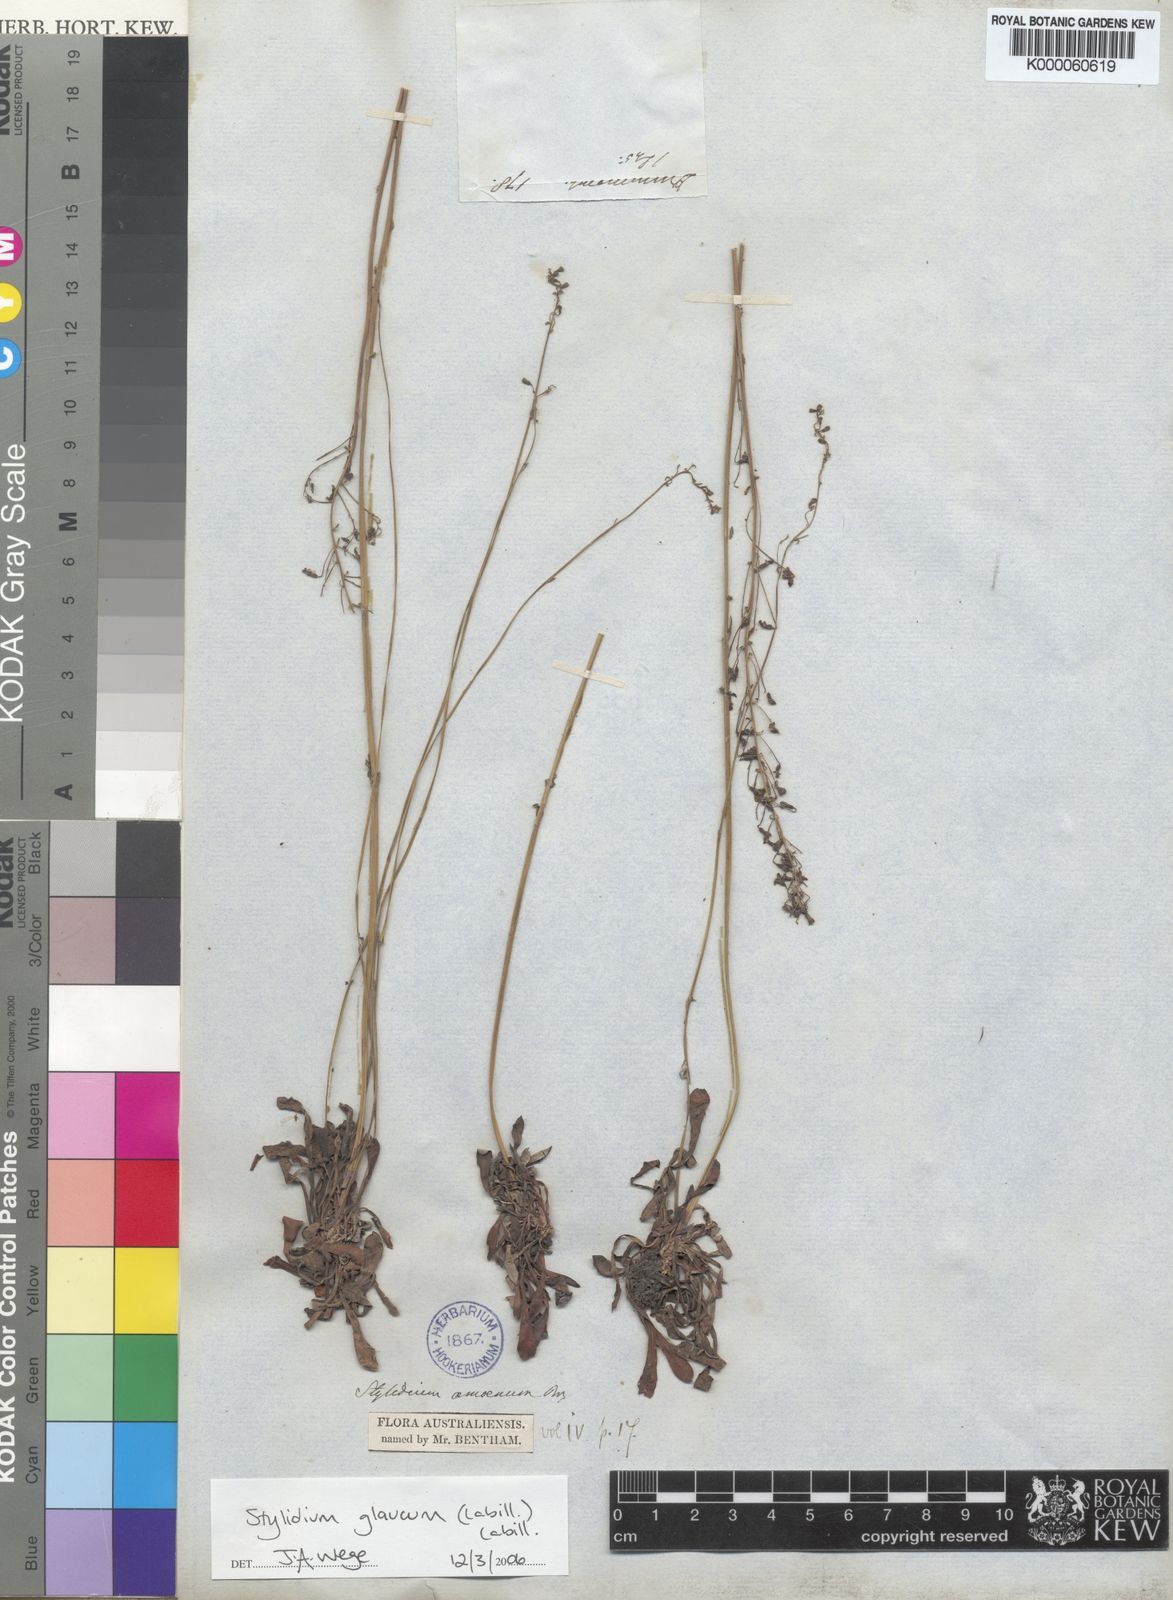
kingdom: Plantae
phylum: Tracheophyta
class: Magnoliopsida
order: Asterales
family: Stylidiaceae
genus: Stylidium
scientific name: Stylidium glaucum
